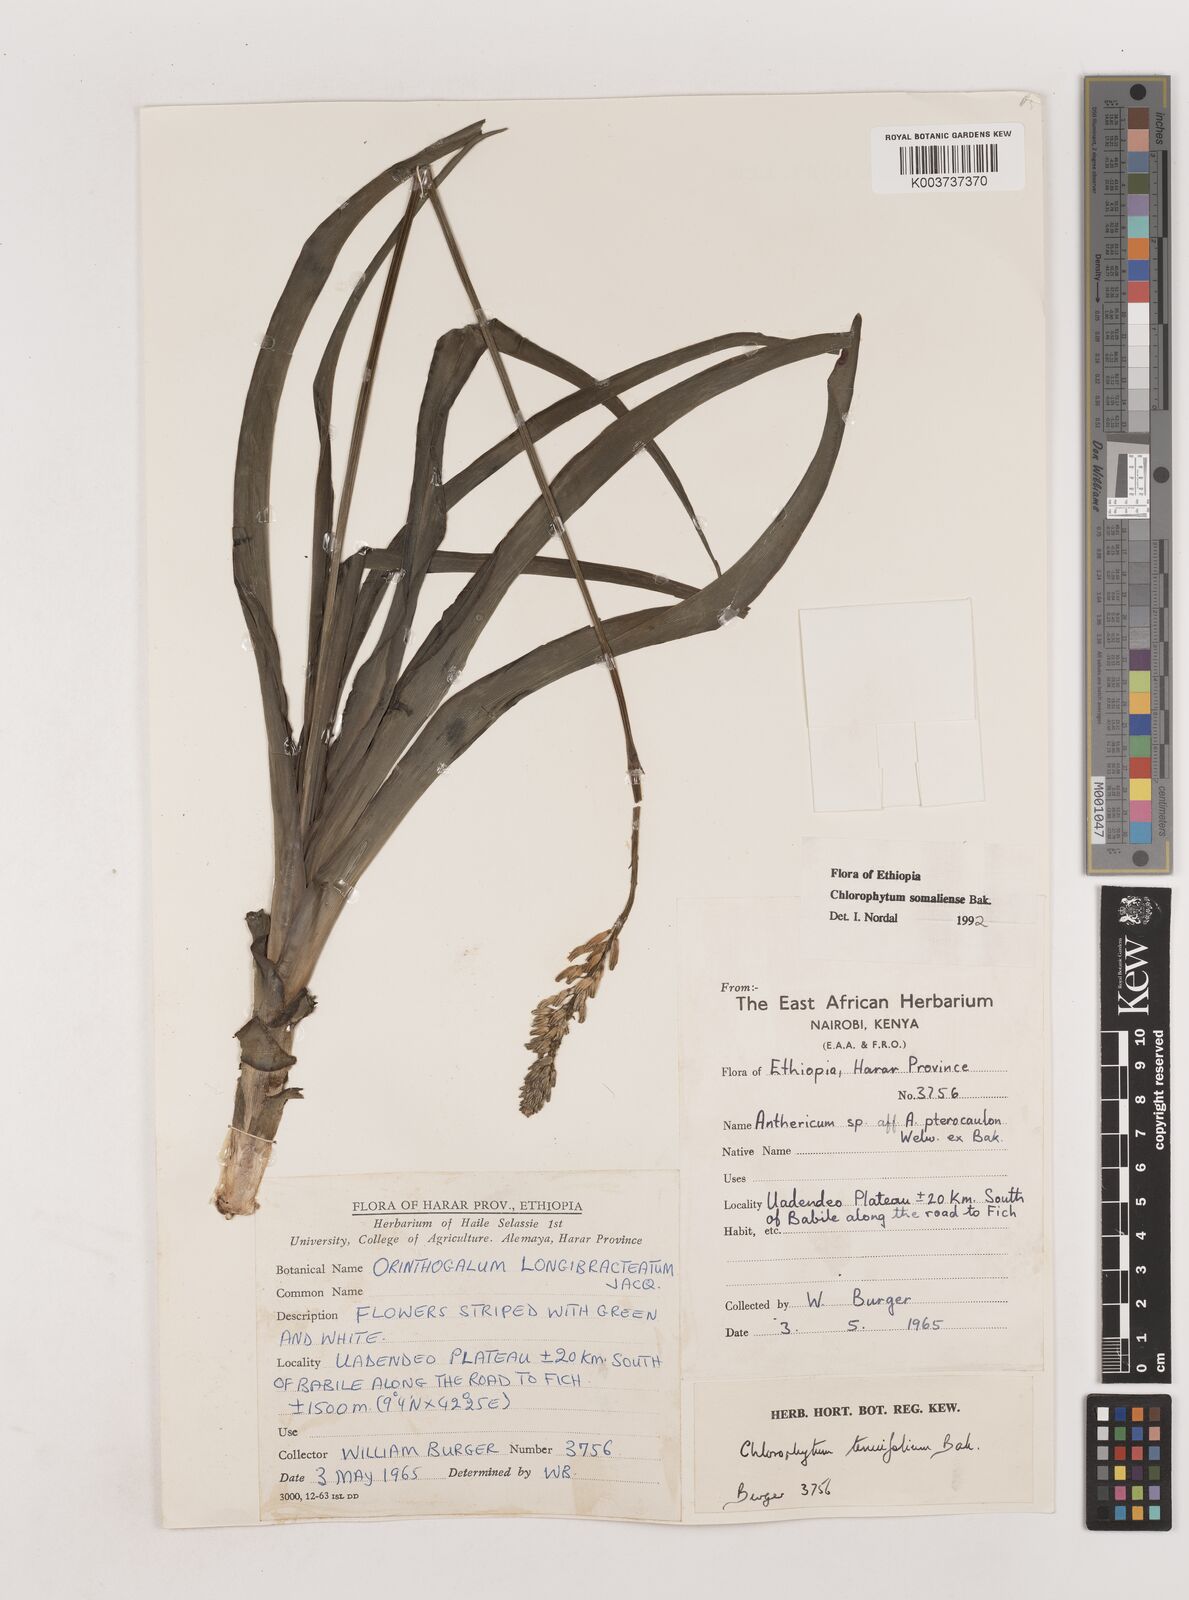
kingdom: Plantae
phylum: Tracheophyta
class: Liliopsida
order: Asparagales
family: Asparagaceae
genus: Chlorophytum
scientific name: Chlorophytum somaliense
